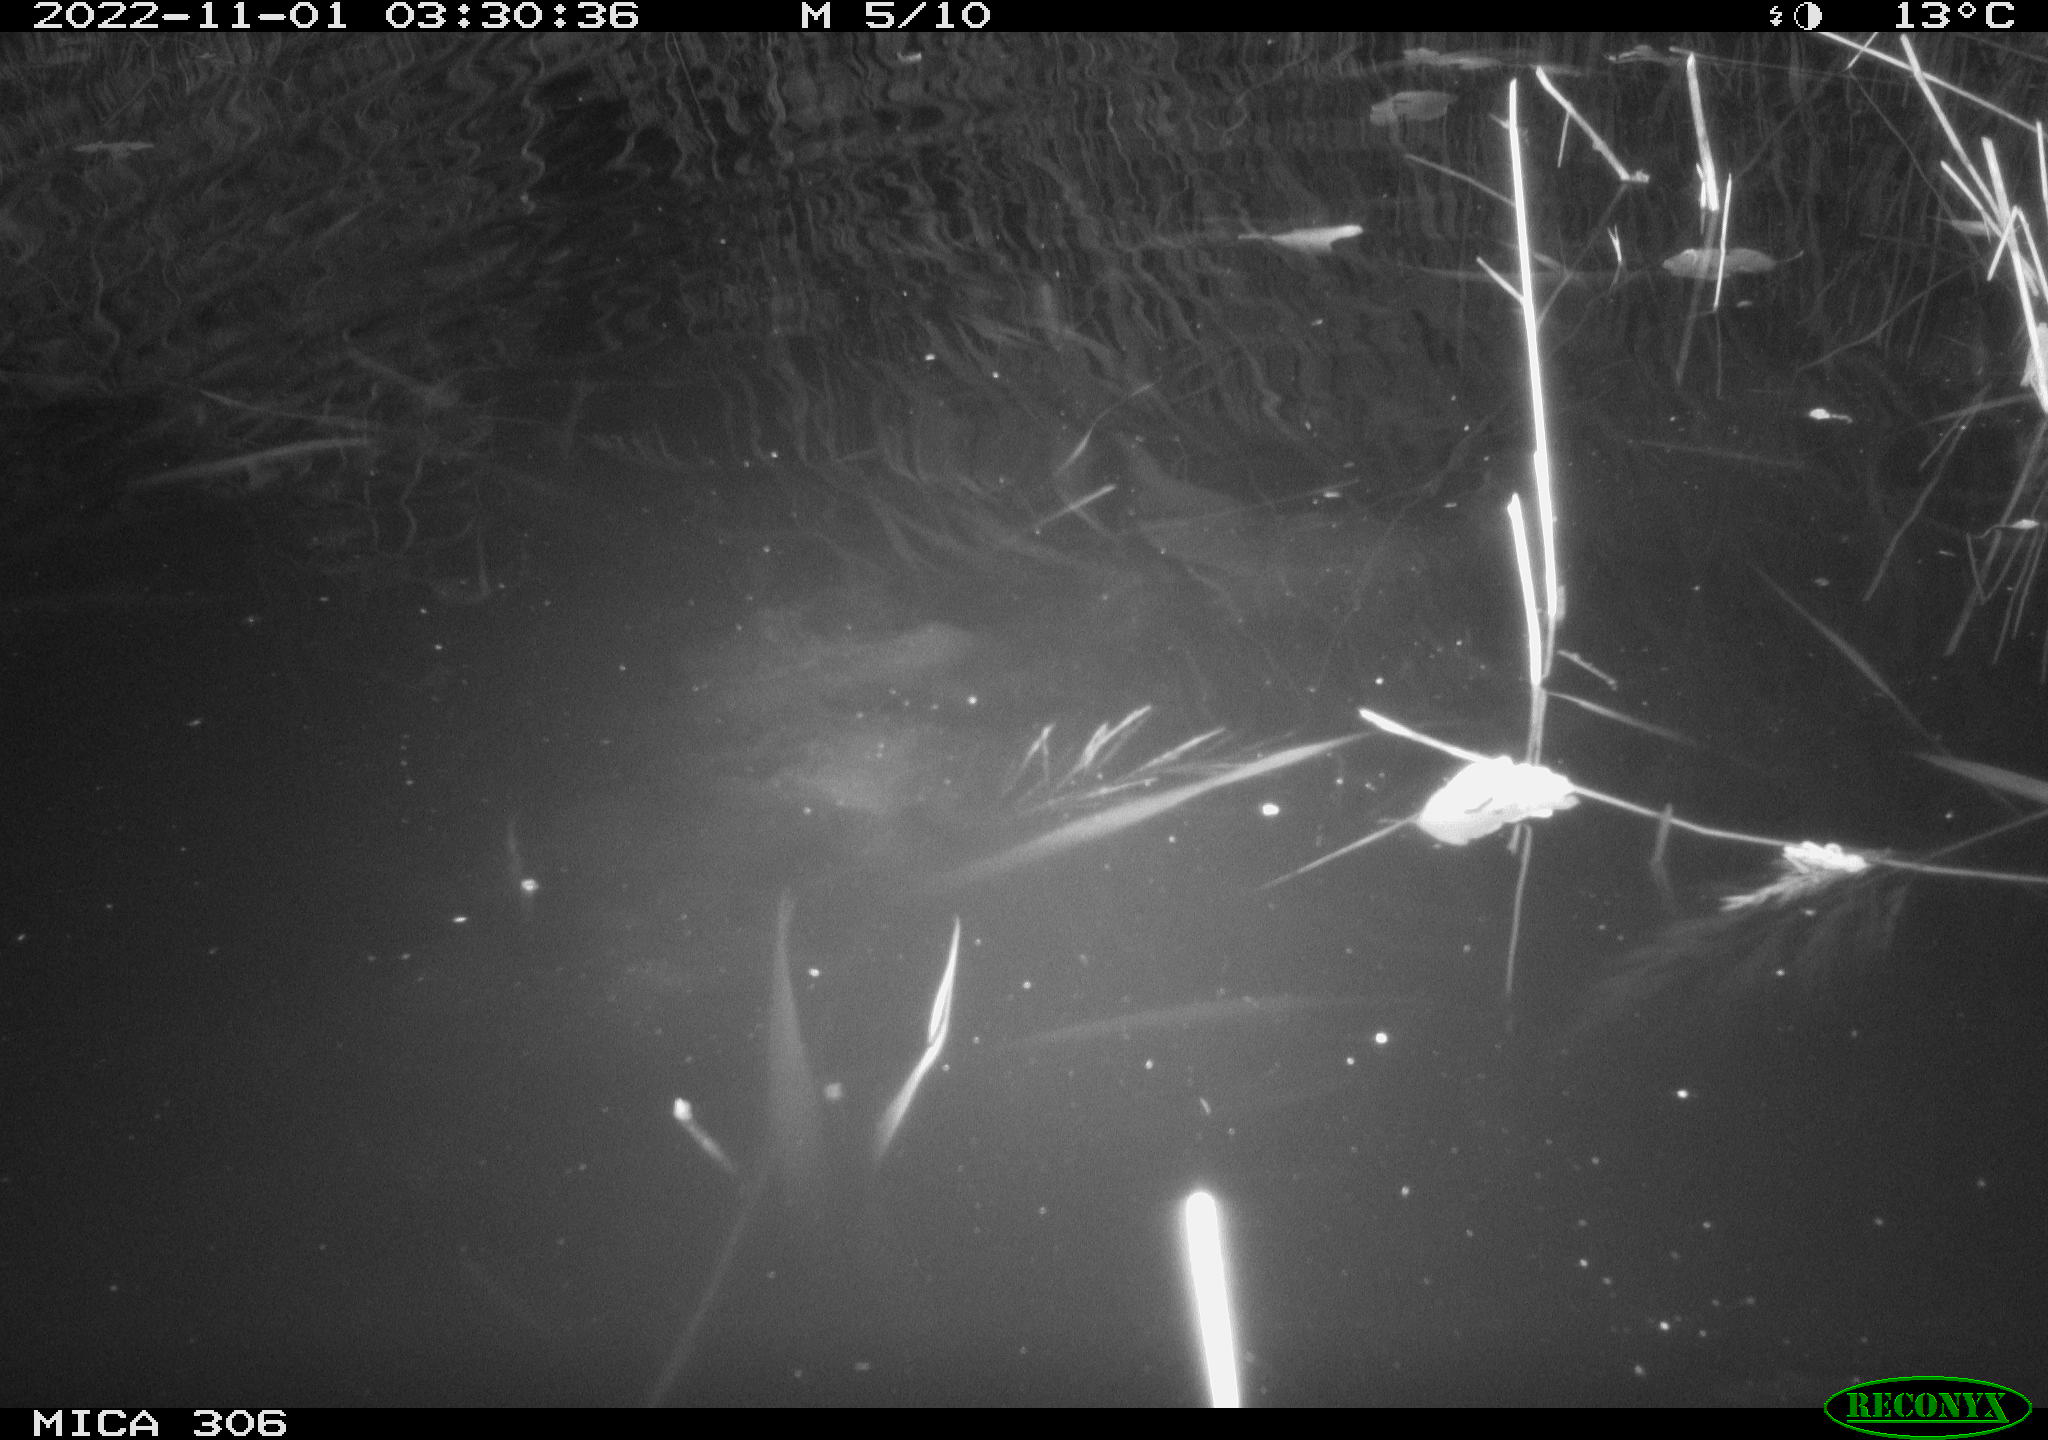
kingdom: Animalia
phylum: Chordata
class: Mammalia
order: Rodentia
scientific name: Rodentia
